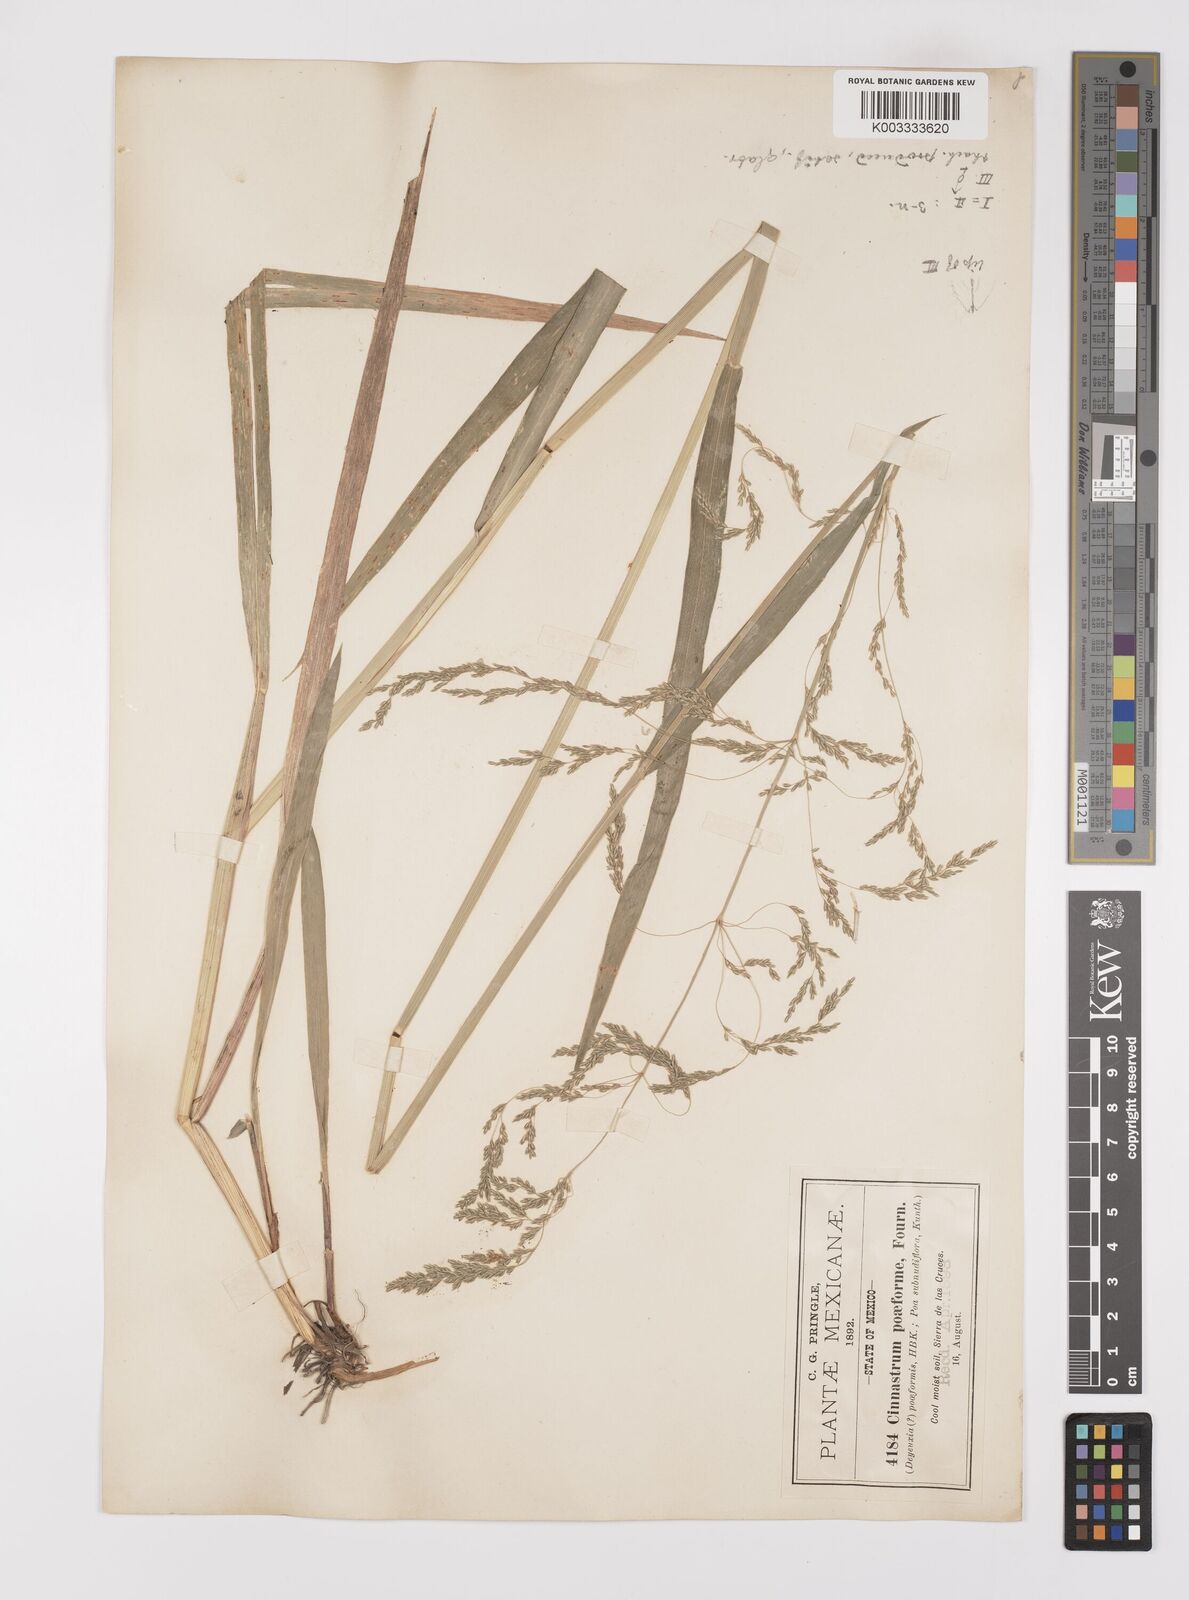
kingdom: Plantae
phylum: Tracheophyta
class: Liliopsida
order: Poales
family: Poaceae
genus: Cinnastrum
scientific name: Cinnastrum poiforme
